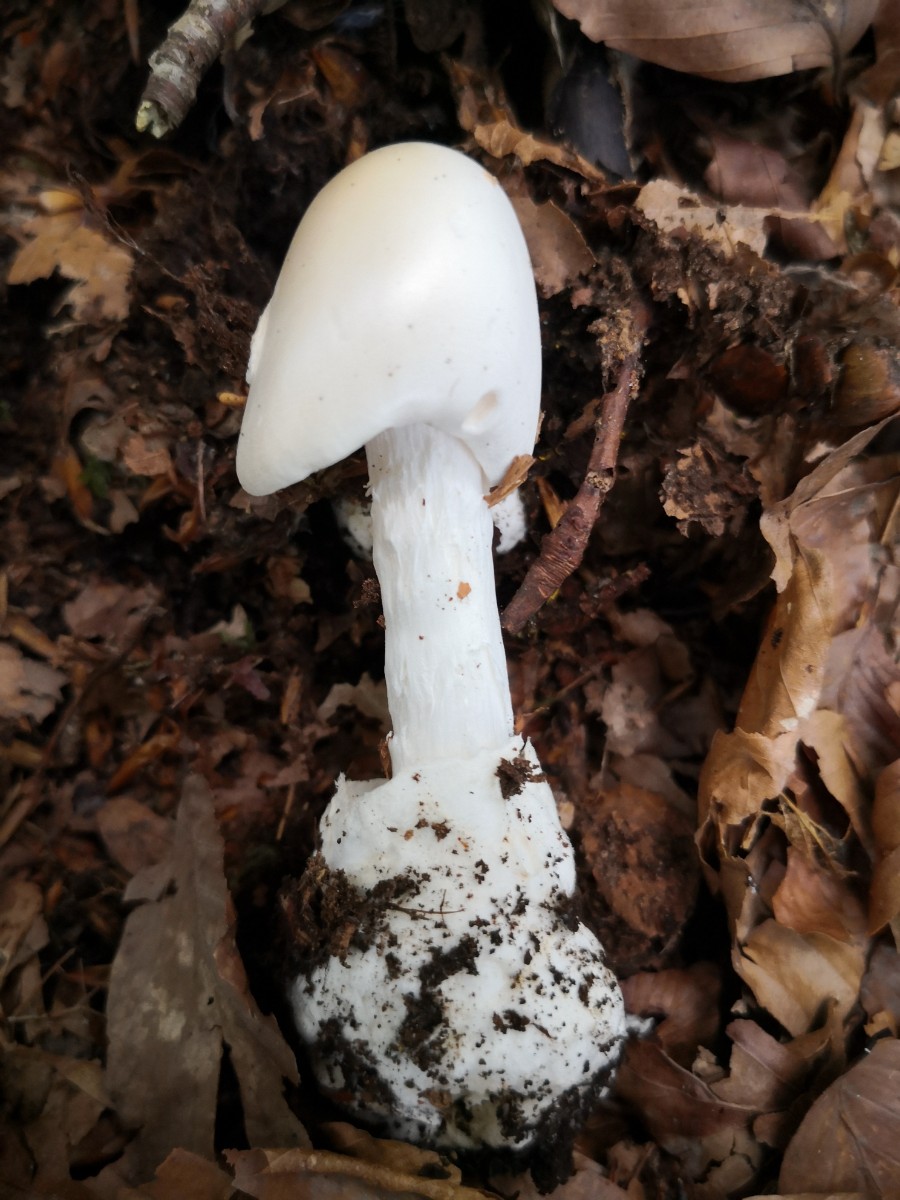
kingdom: Fungi
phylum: Basidiomycota
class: Agaricomycetes
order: Agaricales
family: Amanitaceae
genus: Amanita
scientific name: Amanita virosa
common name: snehvid fluesvamp
